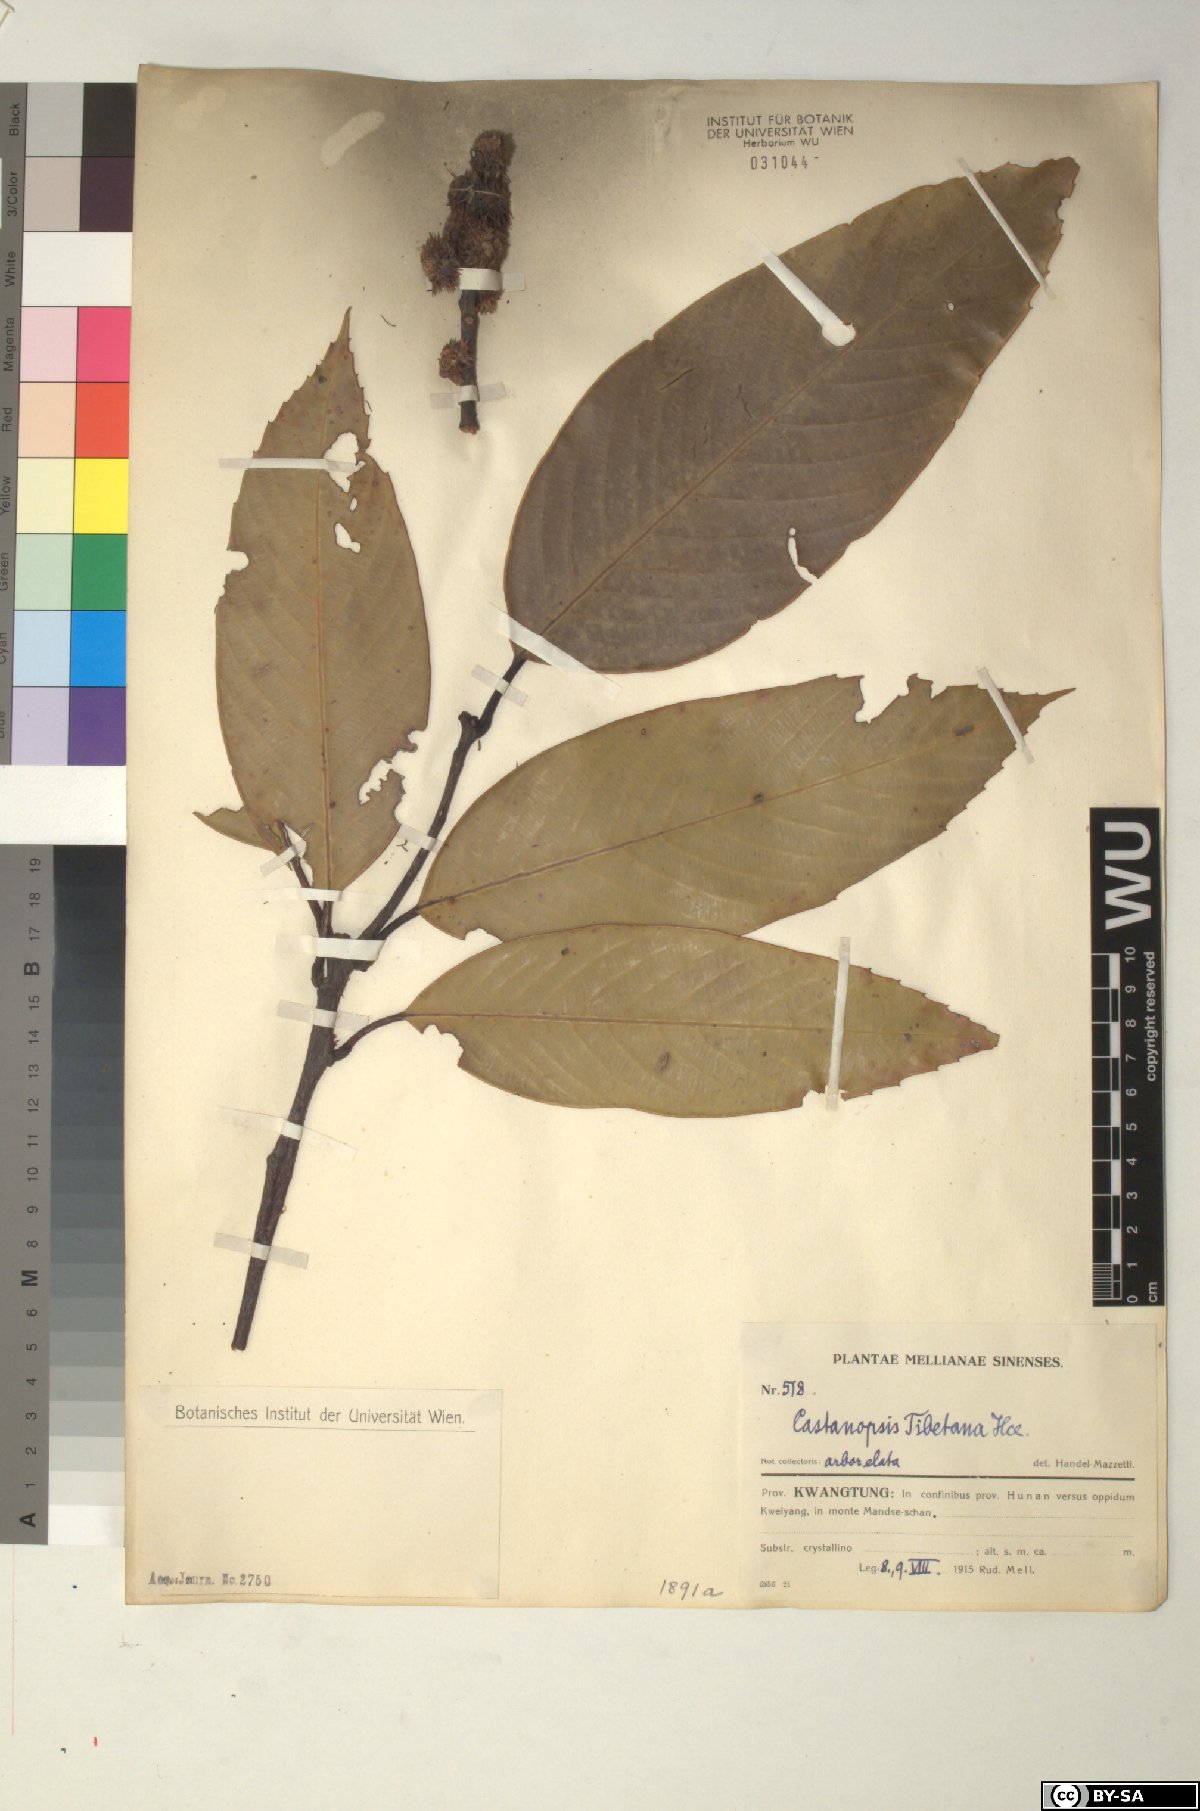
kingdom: Plantae
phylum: Tracheophyta
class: Magnoliopsida
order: Fagales
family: Fagaceae
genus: Castanopsis
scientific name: Castanopsis tibetana
